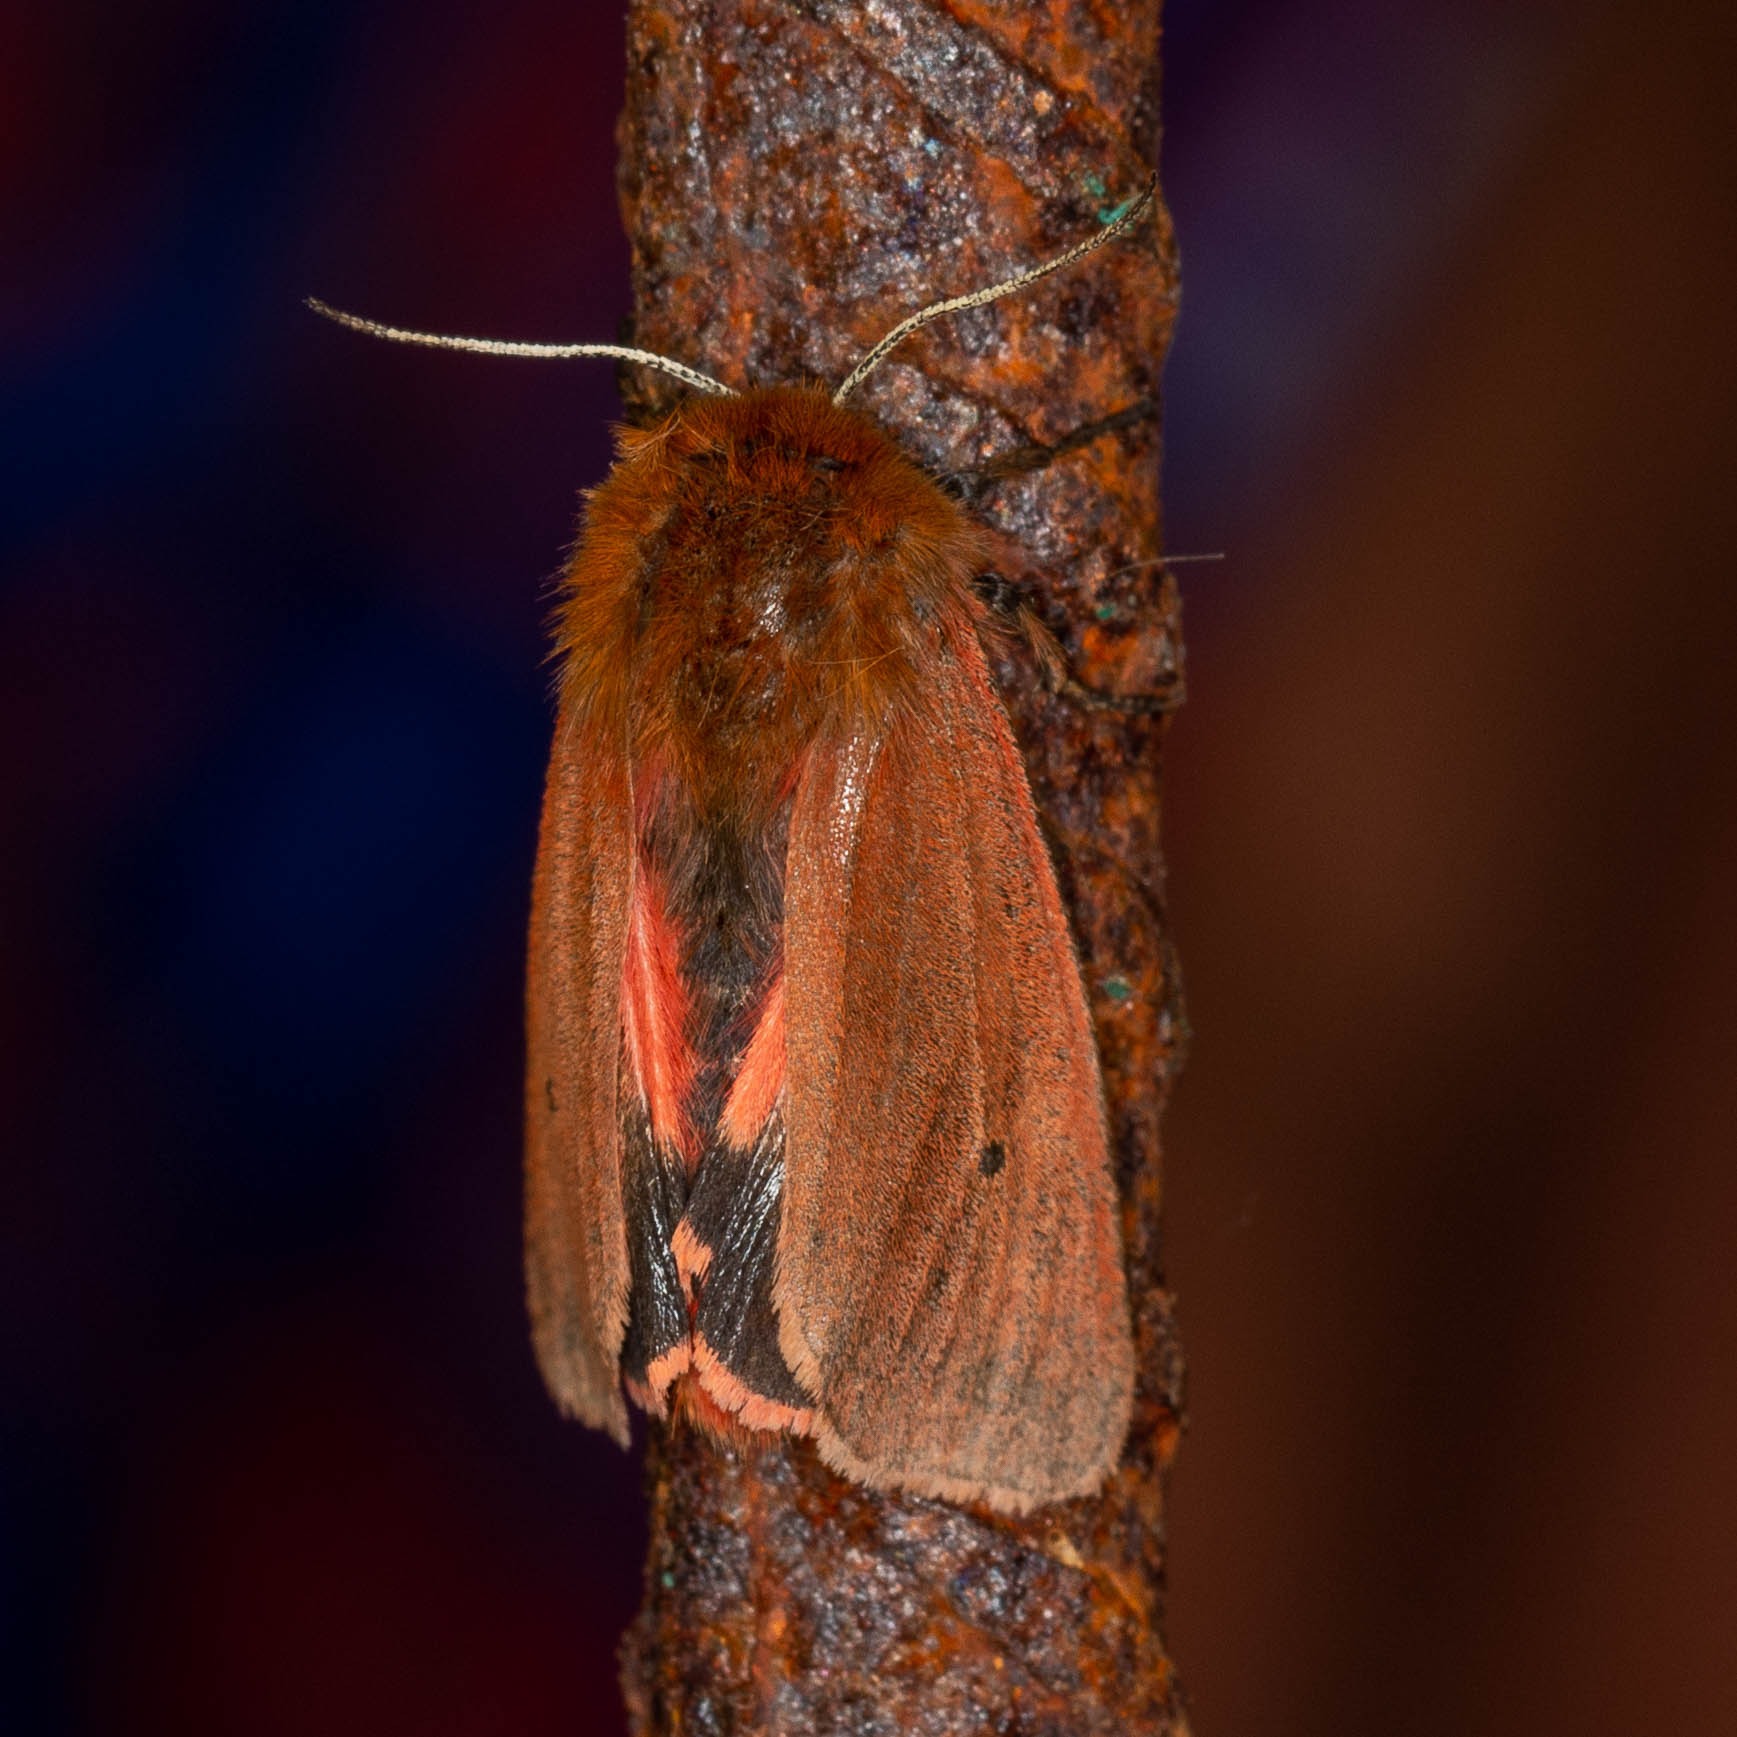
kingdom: Animalia
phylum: Arthropoda
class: Insecta
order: Lepidoptera
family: Erebidae
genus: Phragmatobia
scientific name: Phragmatobia fuliginosa
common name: Kanelbjørn
